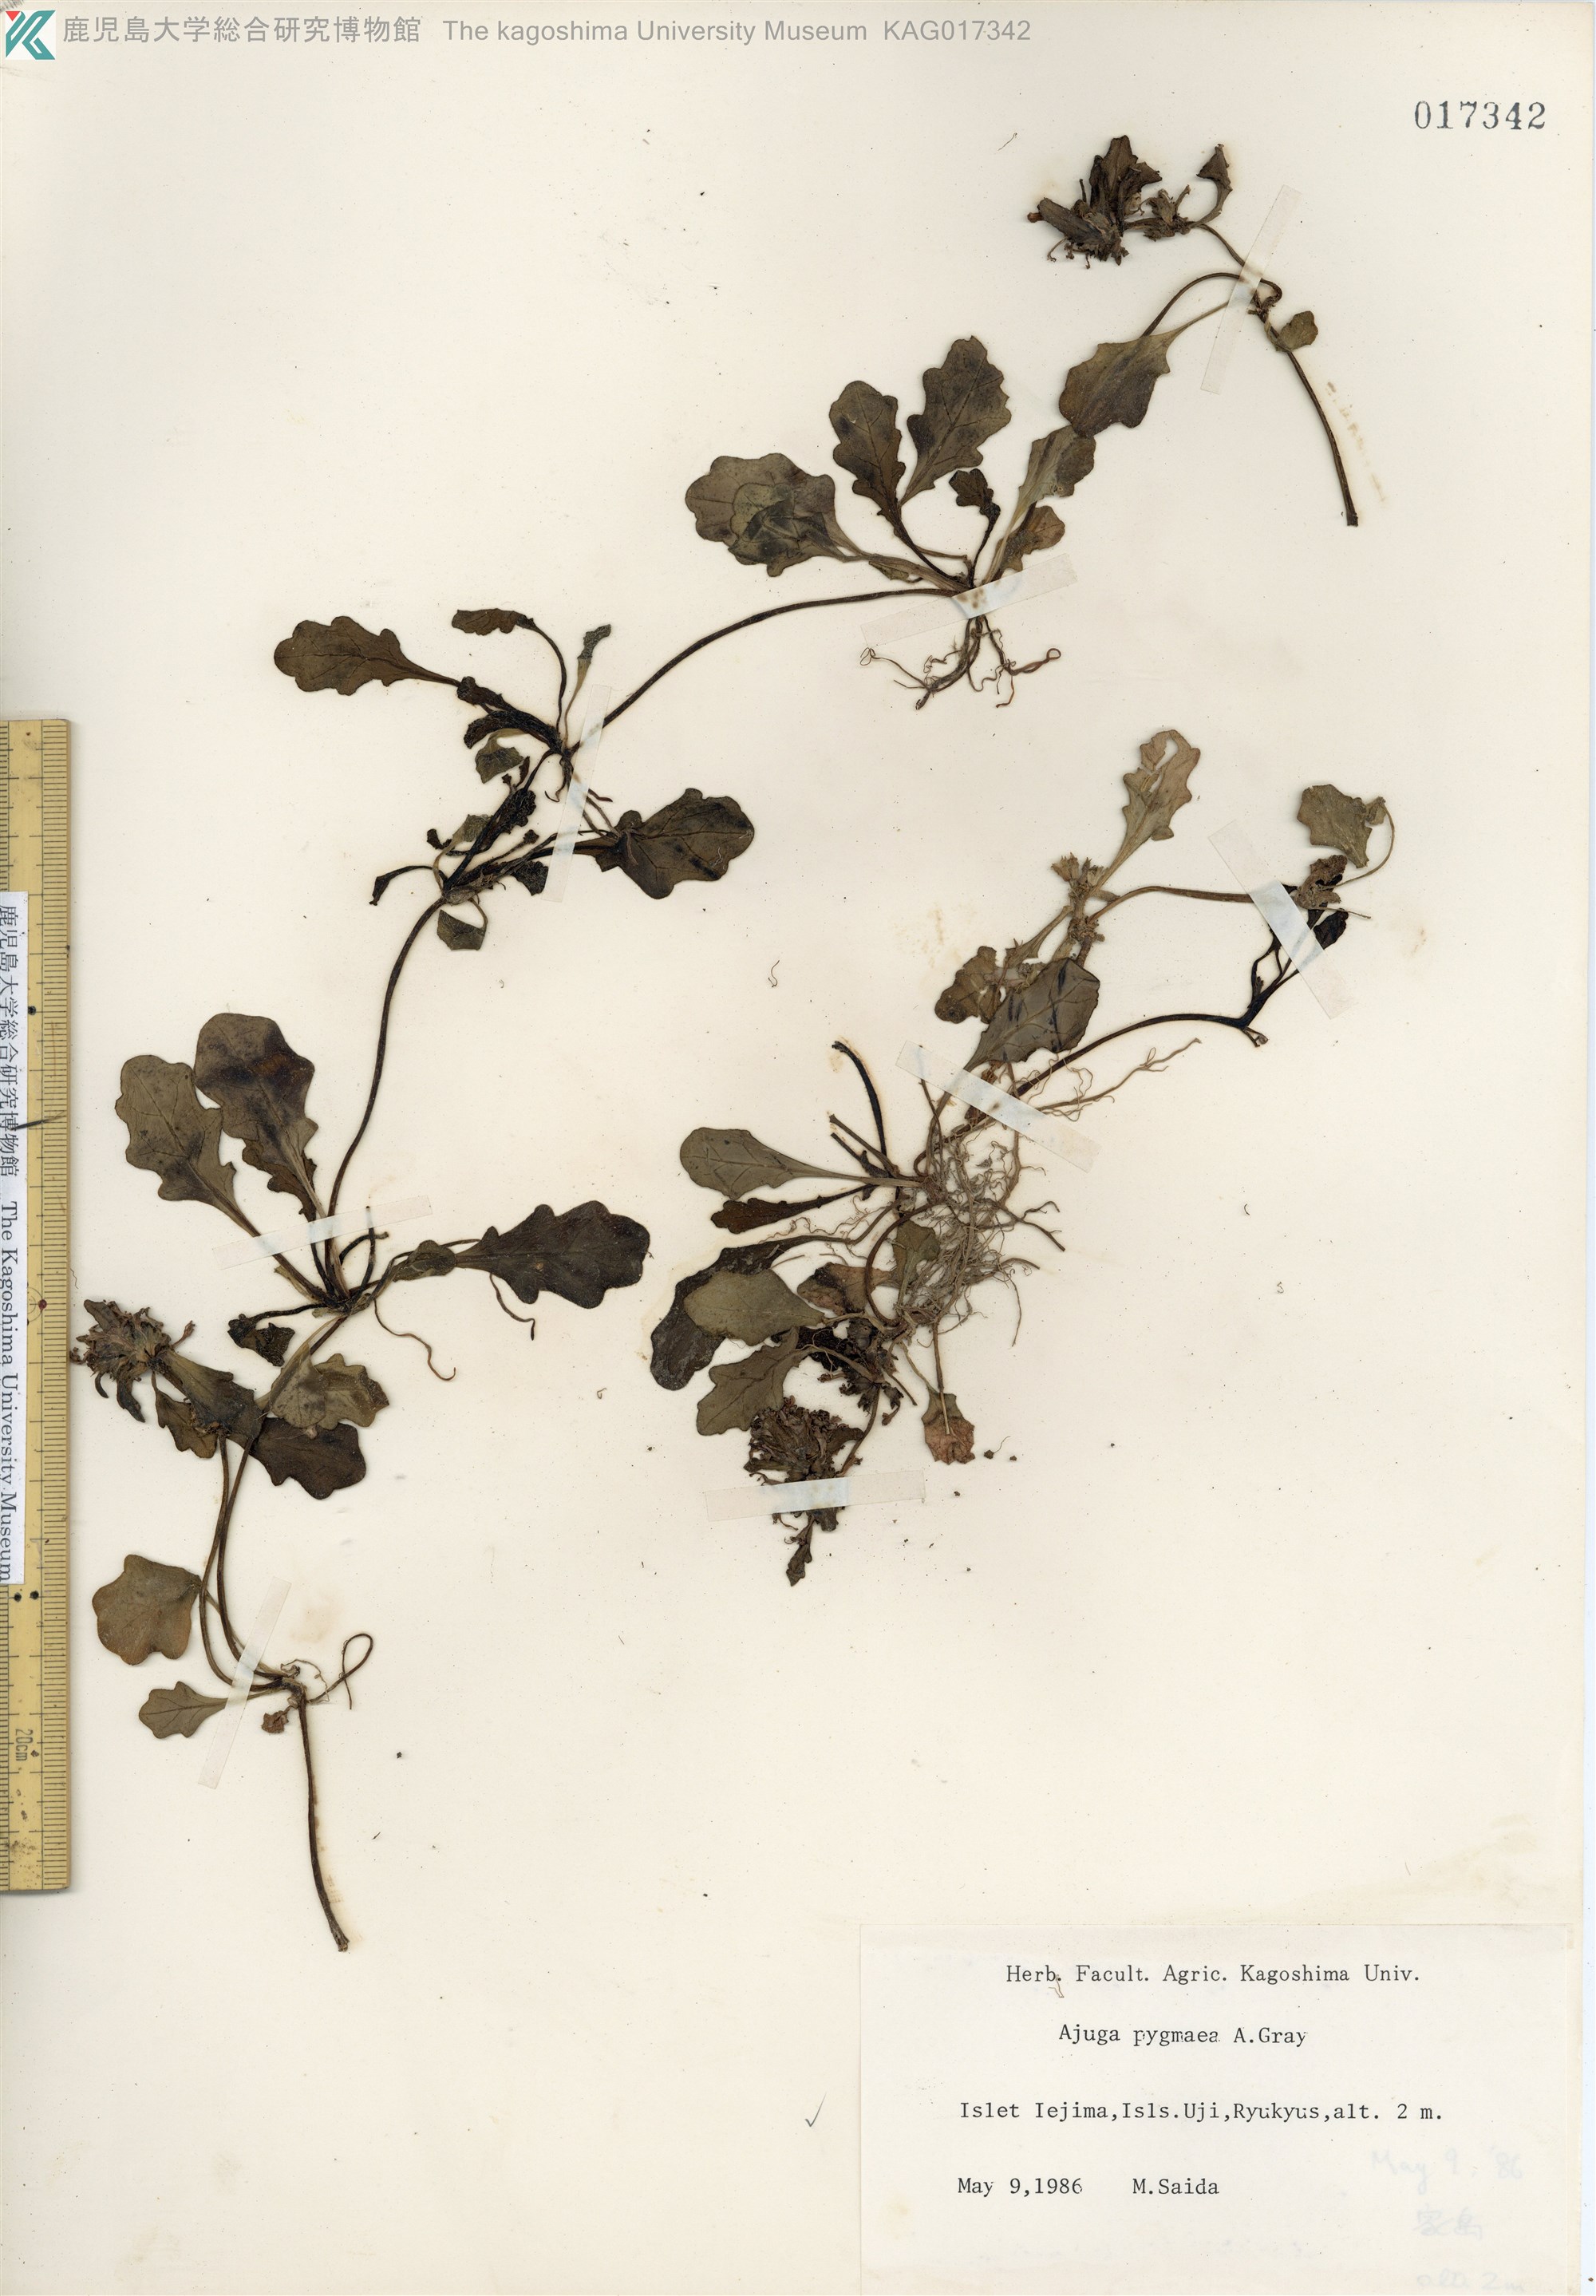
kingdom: Plantae
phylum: Tracheophyta
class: Magnoliopsida
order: Lamiales
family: Lamiaceae
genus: Ajuga
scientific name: Ajuga pygmaea
